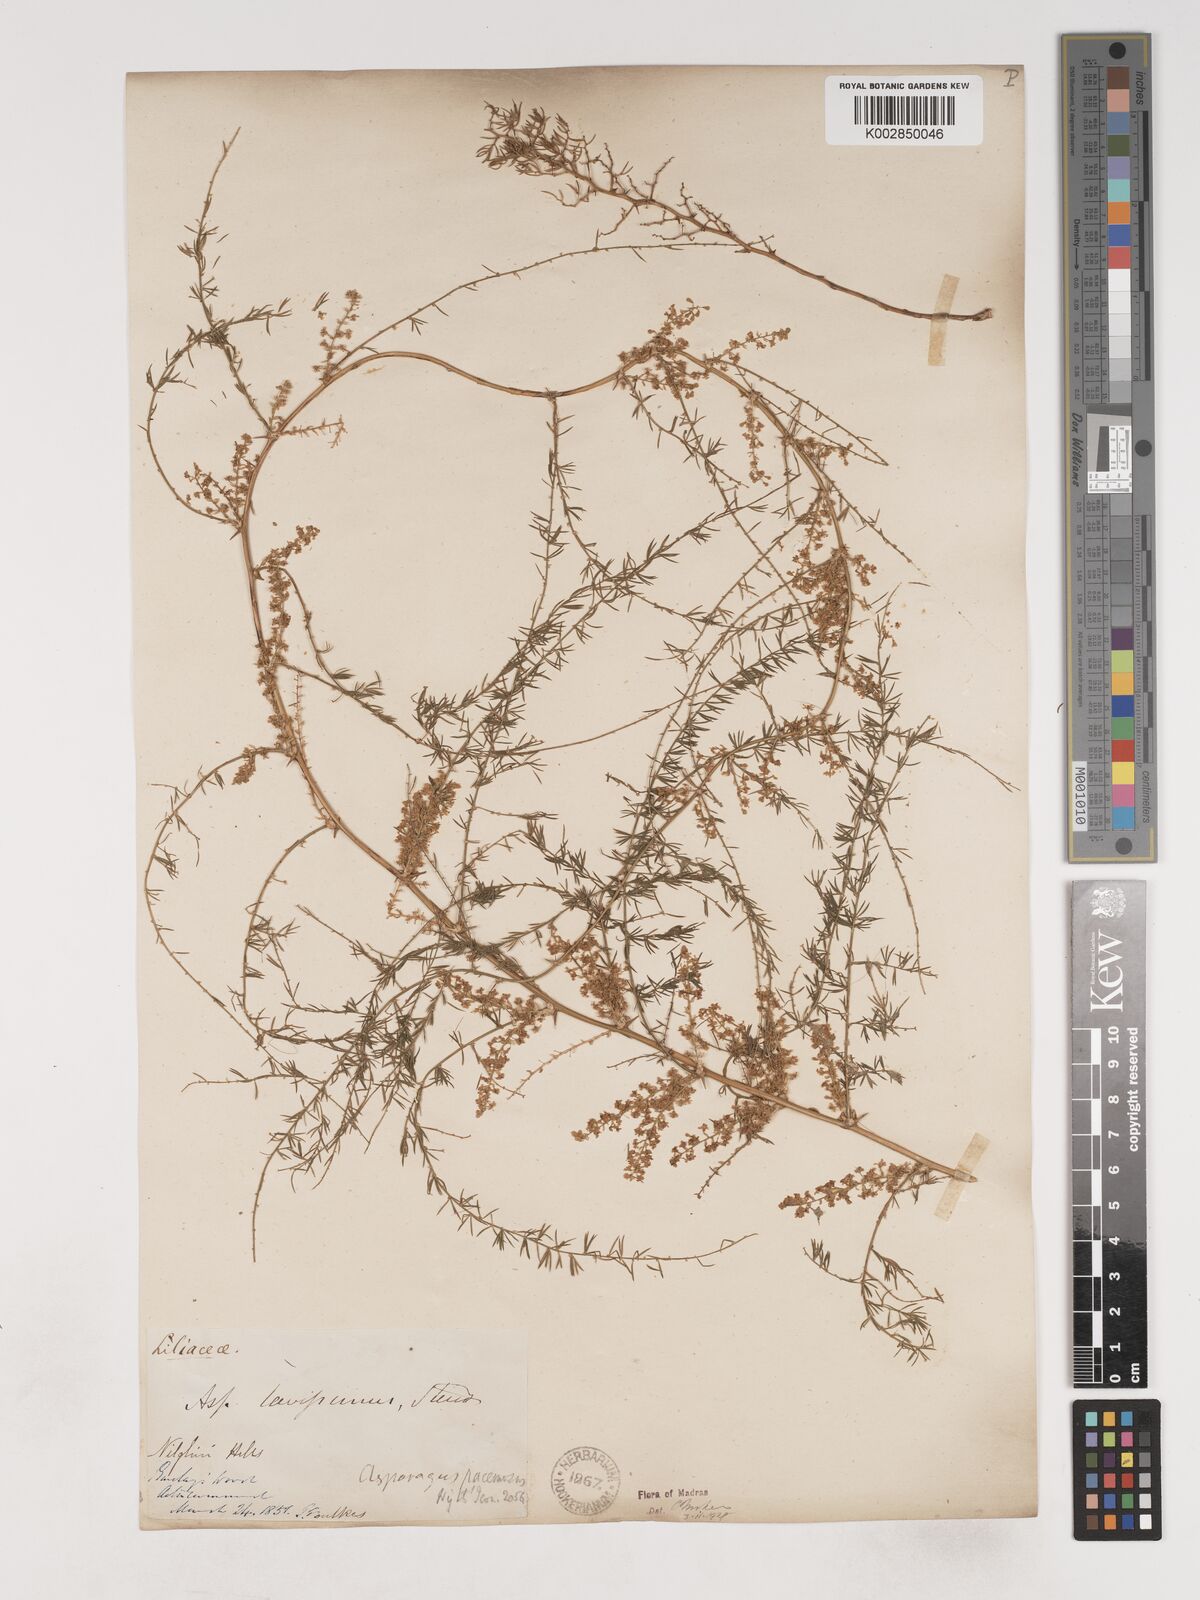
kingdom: Plantae
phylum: Tracheophyta
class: Liliopsida
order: Asparagales
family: Asparagaceae
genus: Asparagus
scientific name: Asparagus laevissimus
